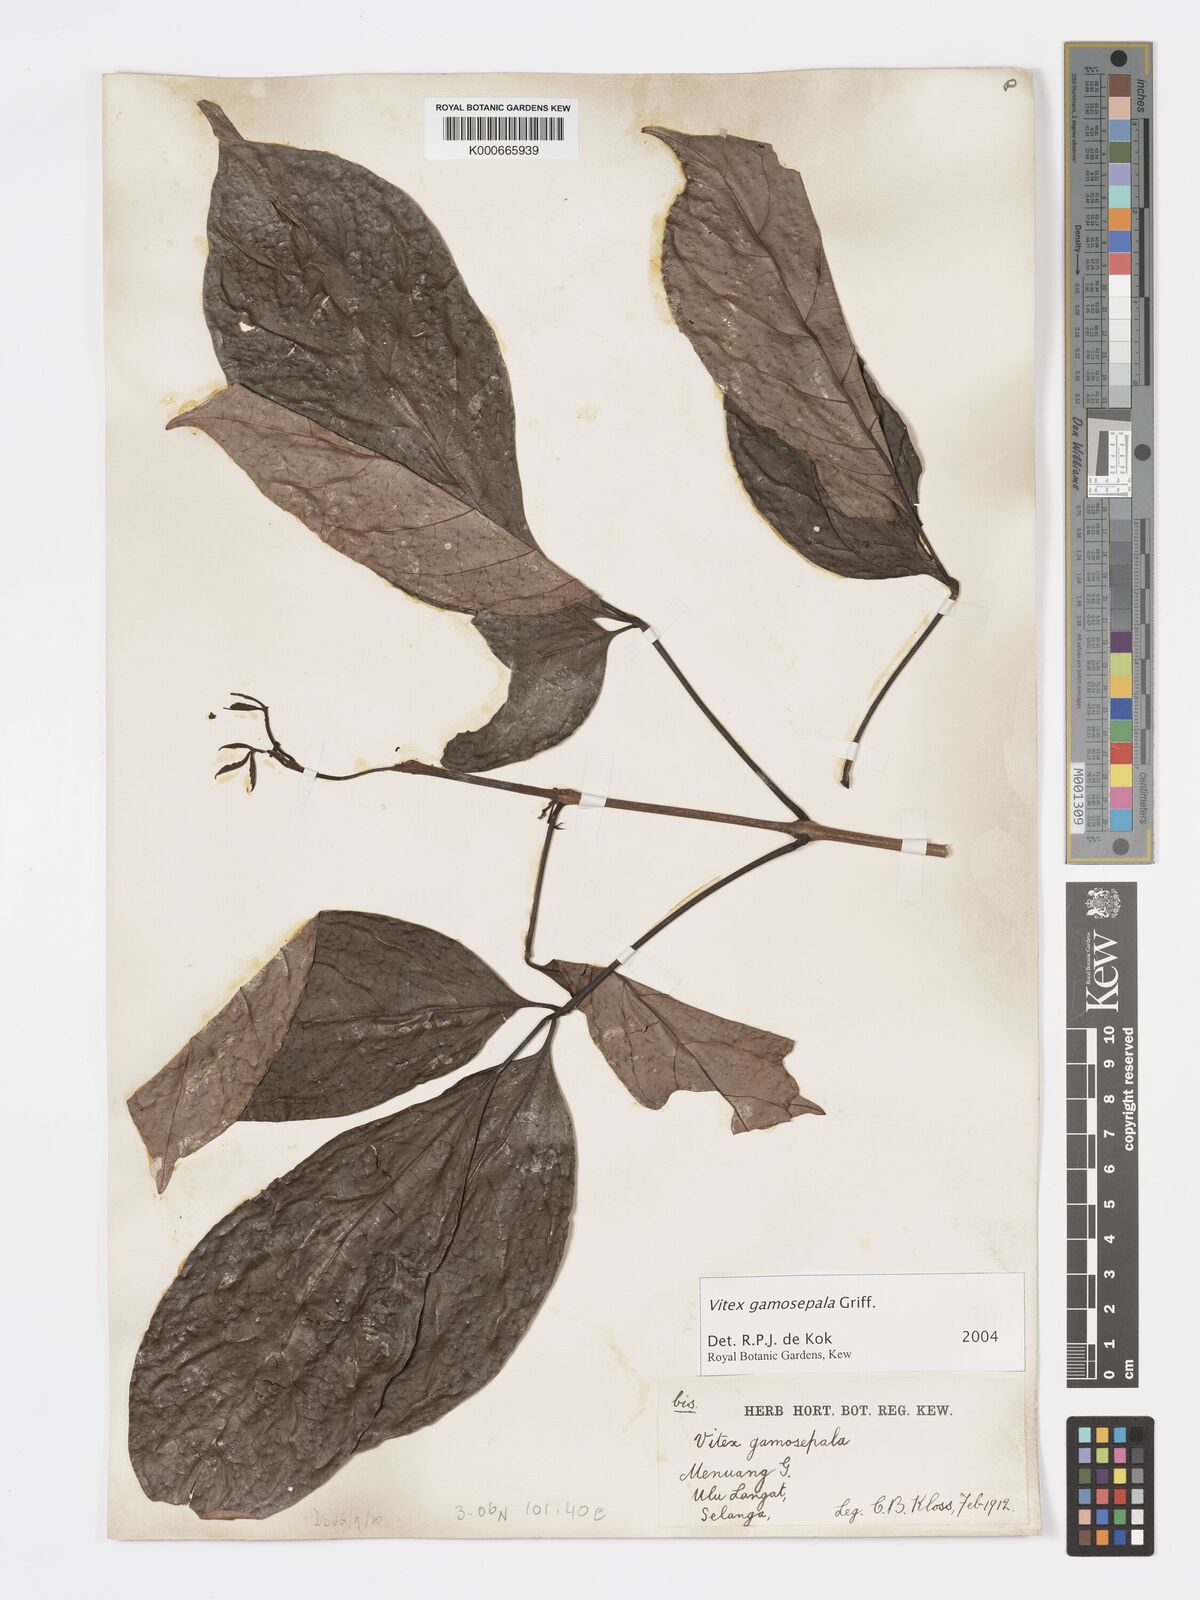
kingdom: Plantae
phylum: Tracheophyta
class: Magnoliopsida
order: Lamiales
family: Lamiaceae
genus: Vitex
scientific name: Vitex gamosepala
